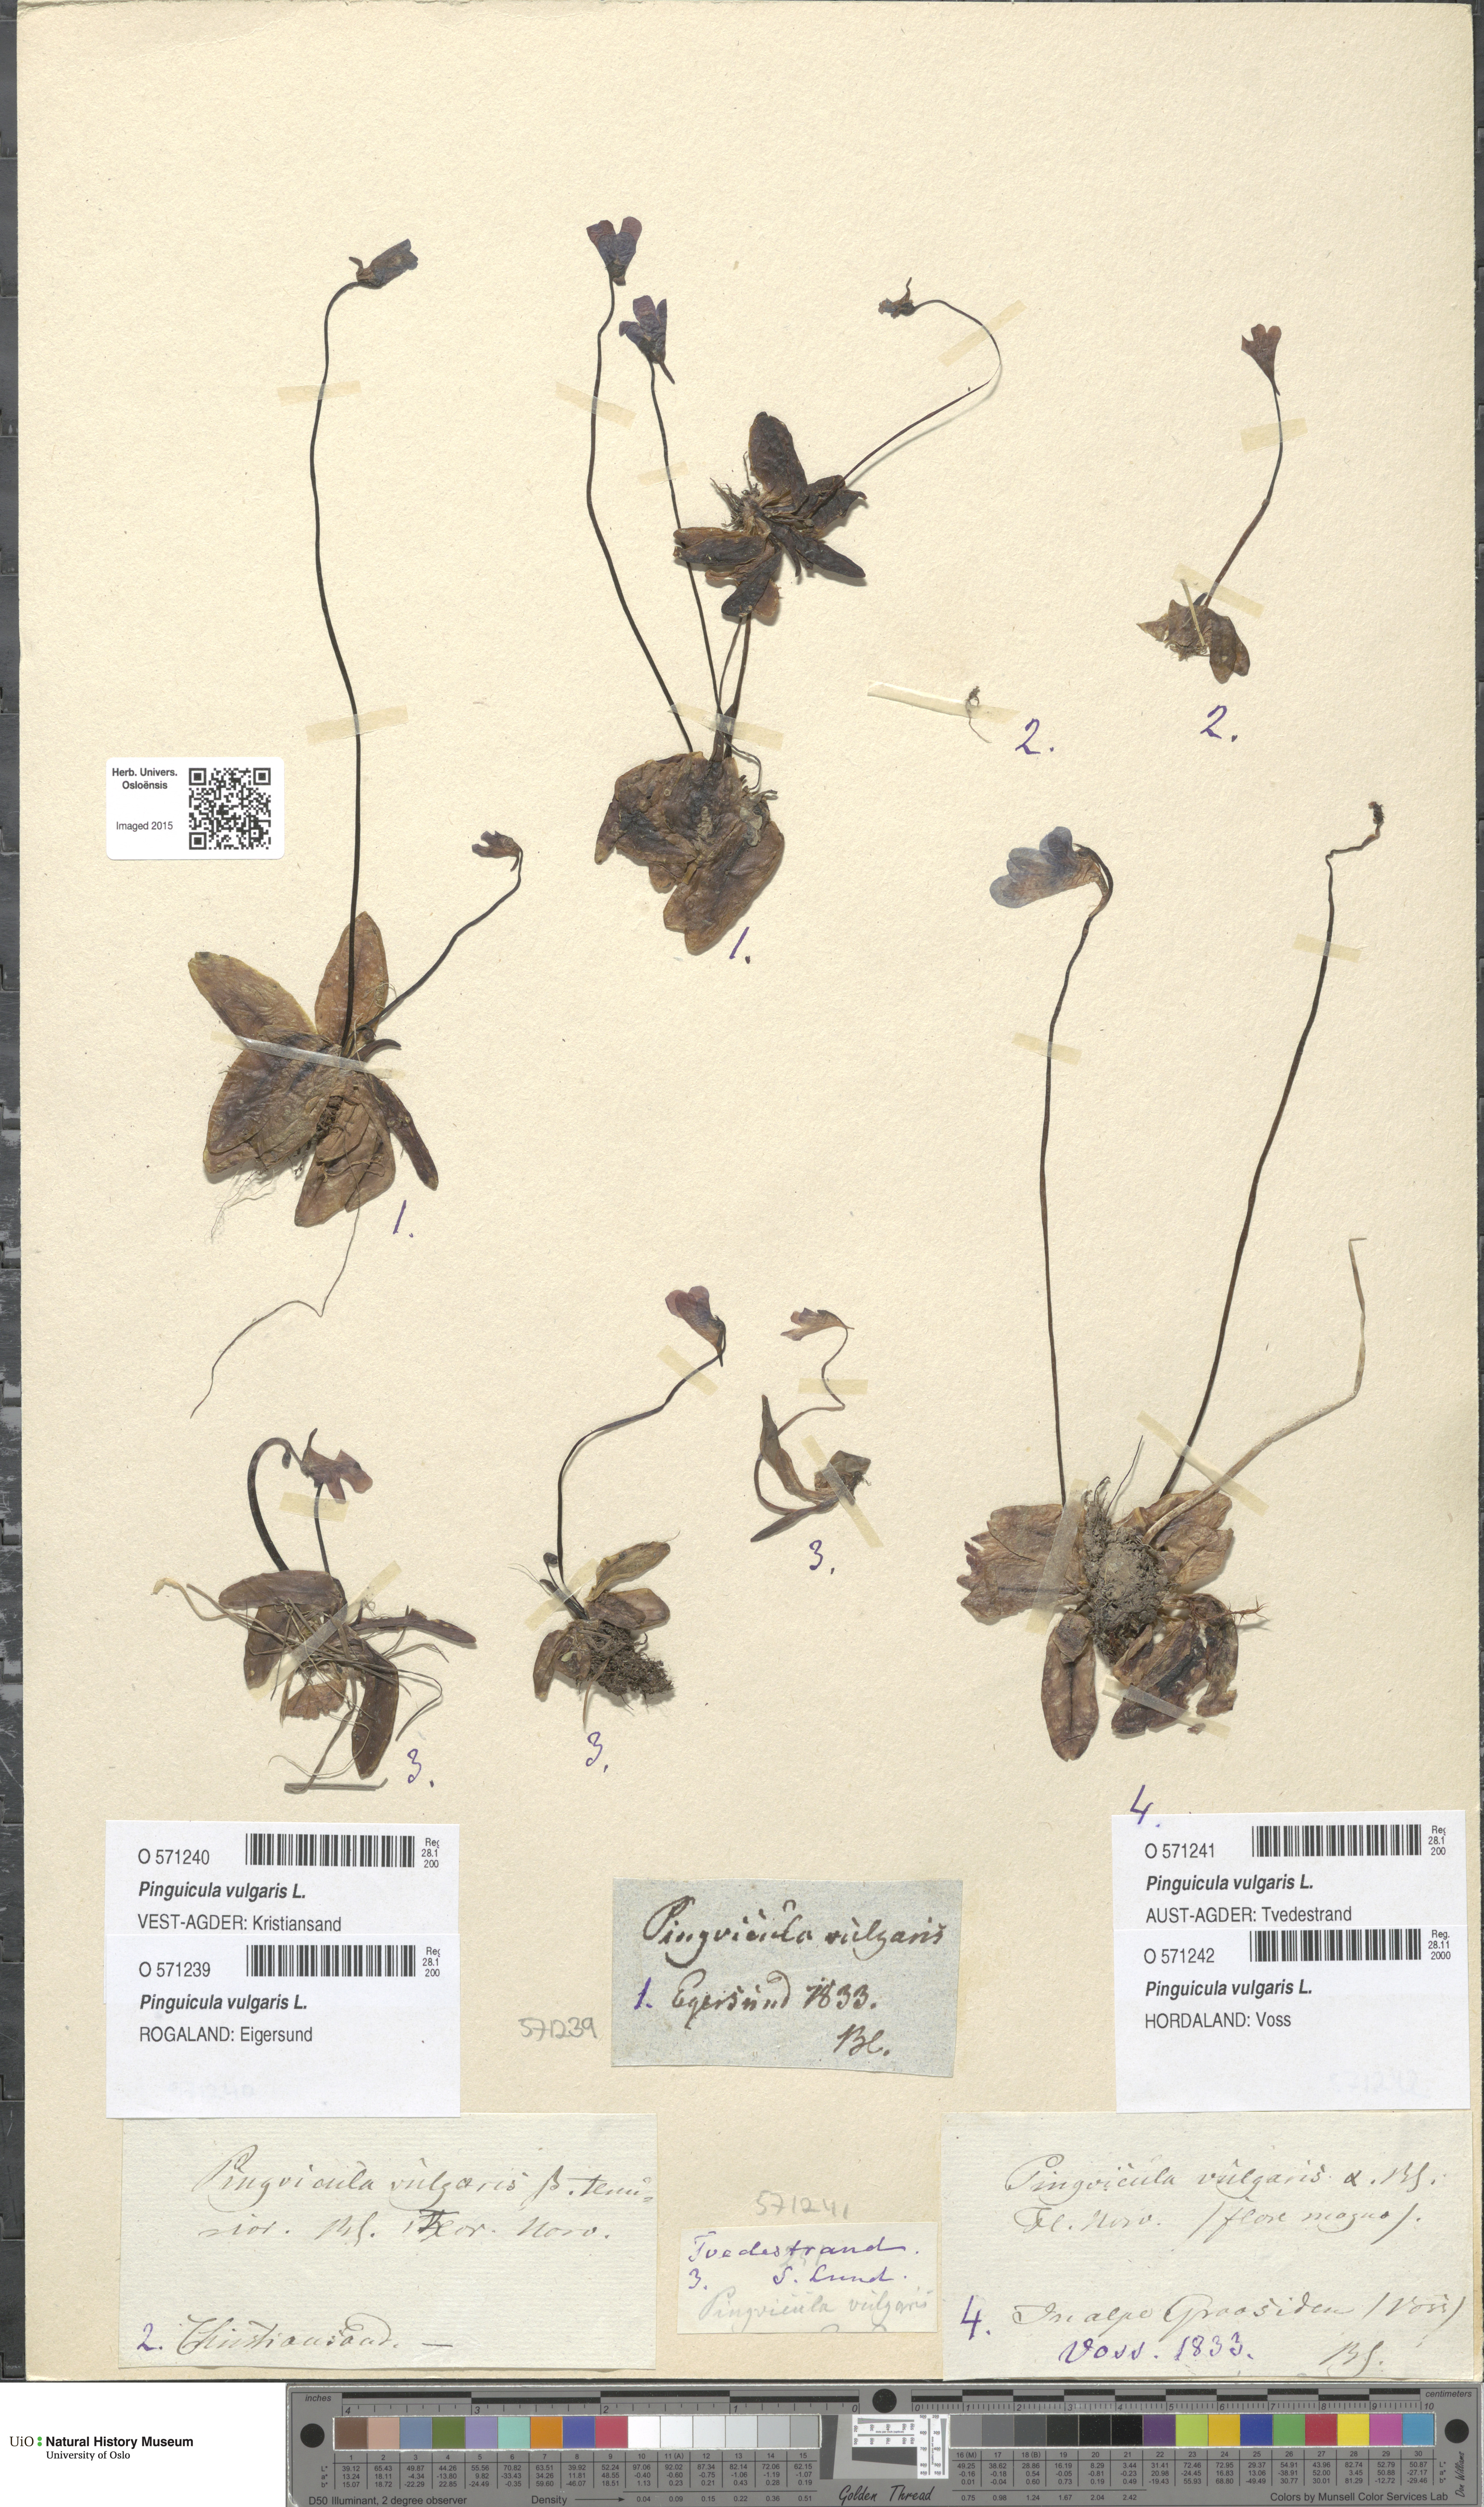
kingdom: Plantae
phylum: Tracheophyta
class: Magnoliopsida
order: Lamiales
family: Lentibulariaceae
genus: Pinguicula
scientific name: Pinguicula vulgaris
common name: Common butterwort
